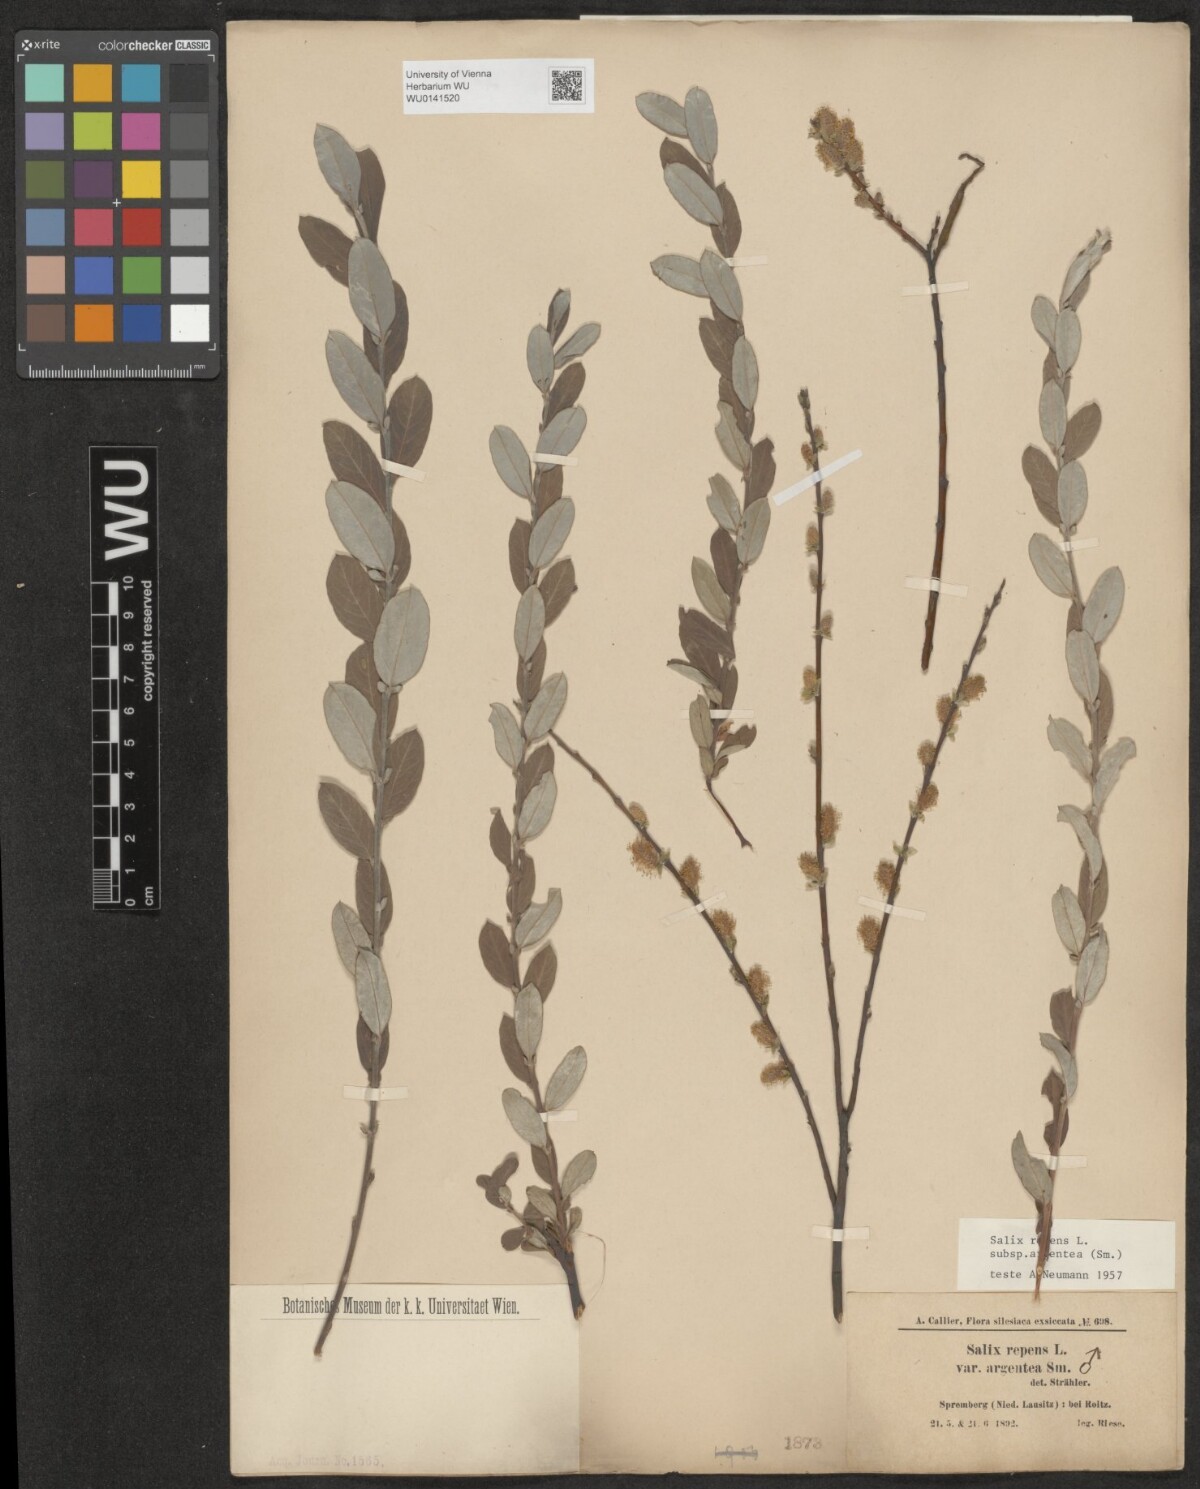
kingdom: Plantae
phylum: Tracheophyta
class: Magnoliopsida
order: Malpighiales
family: Salicaceae
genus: Salix
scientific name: Salix repens
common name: Creeping willow
